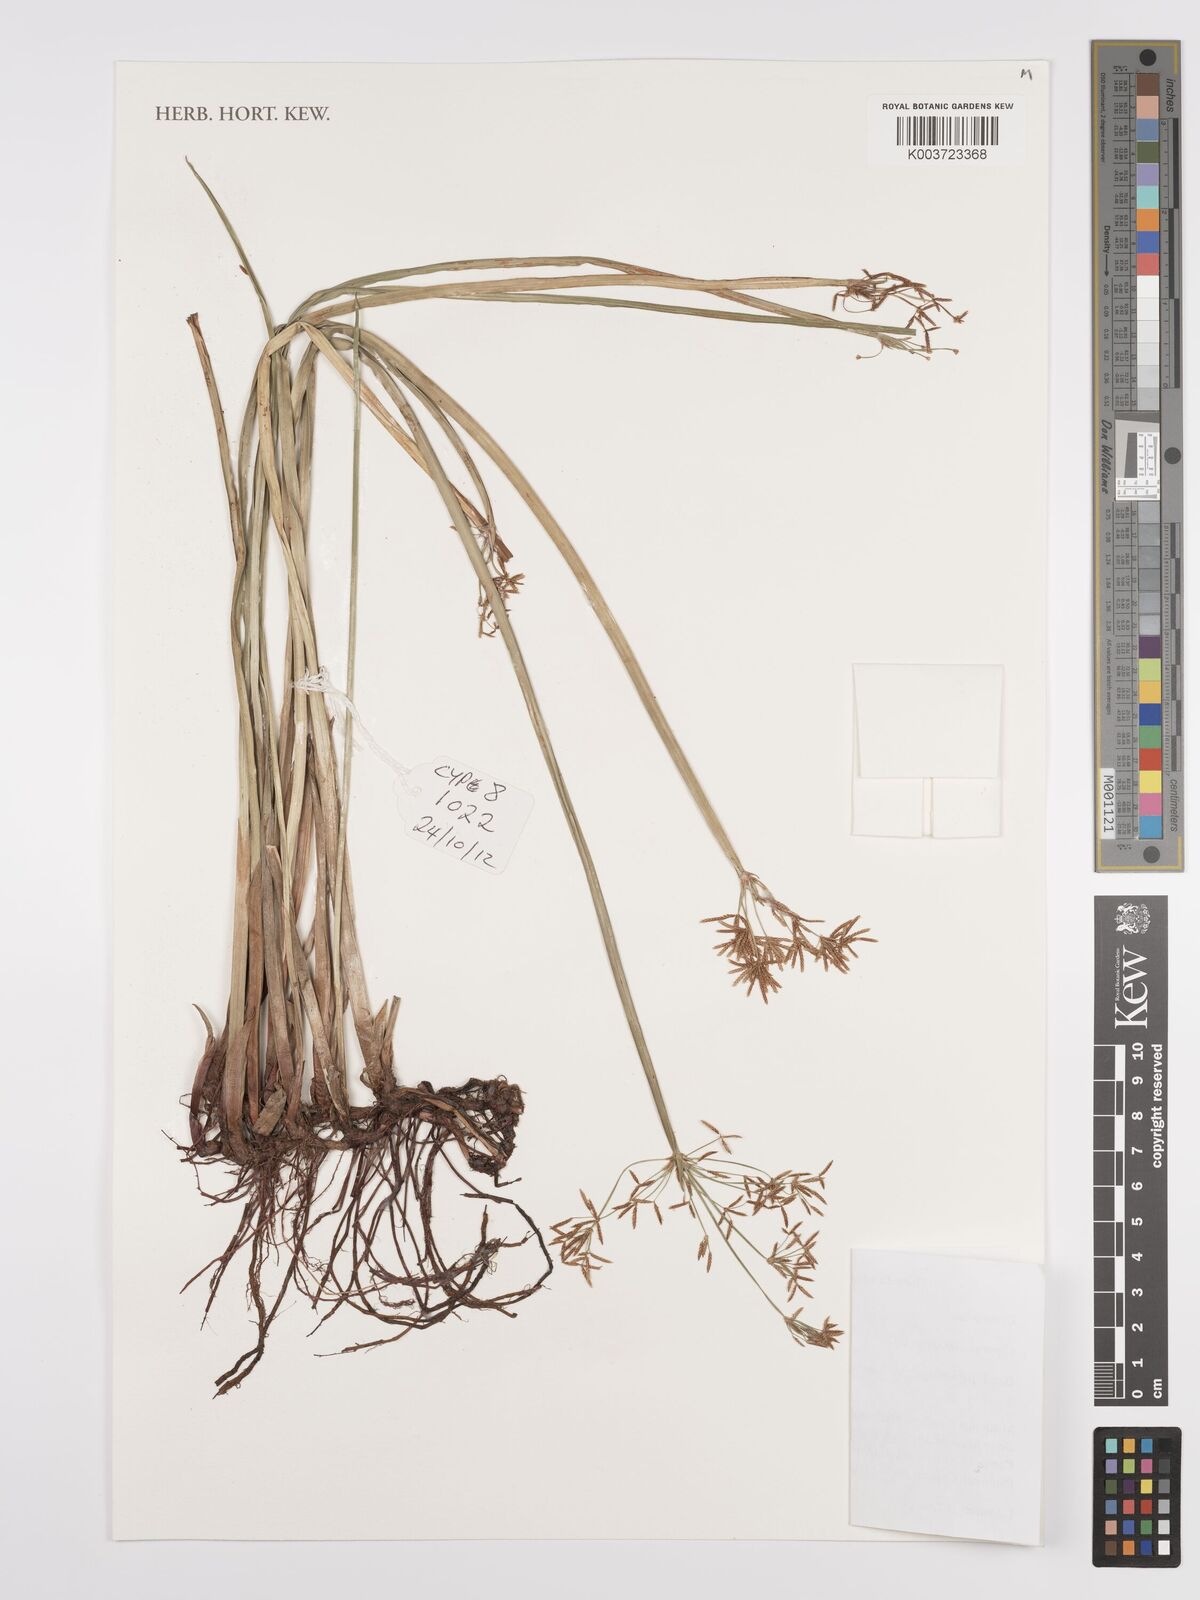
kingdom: Plantae
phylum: Tracheophyta
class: Liliopsida
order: Poales
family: Cyperaceae
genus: Cyperus
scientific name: Cyperus denudatus
